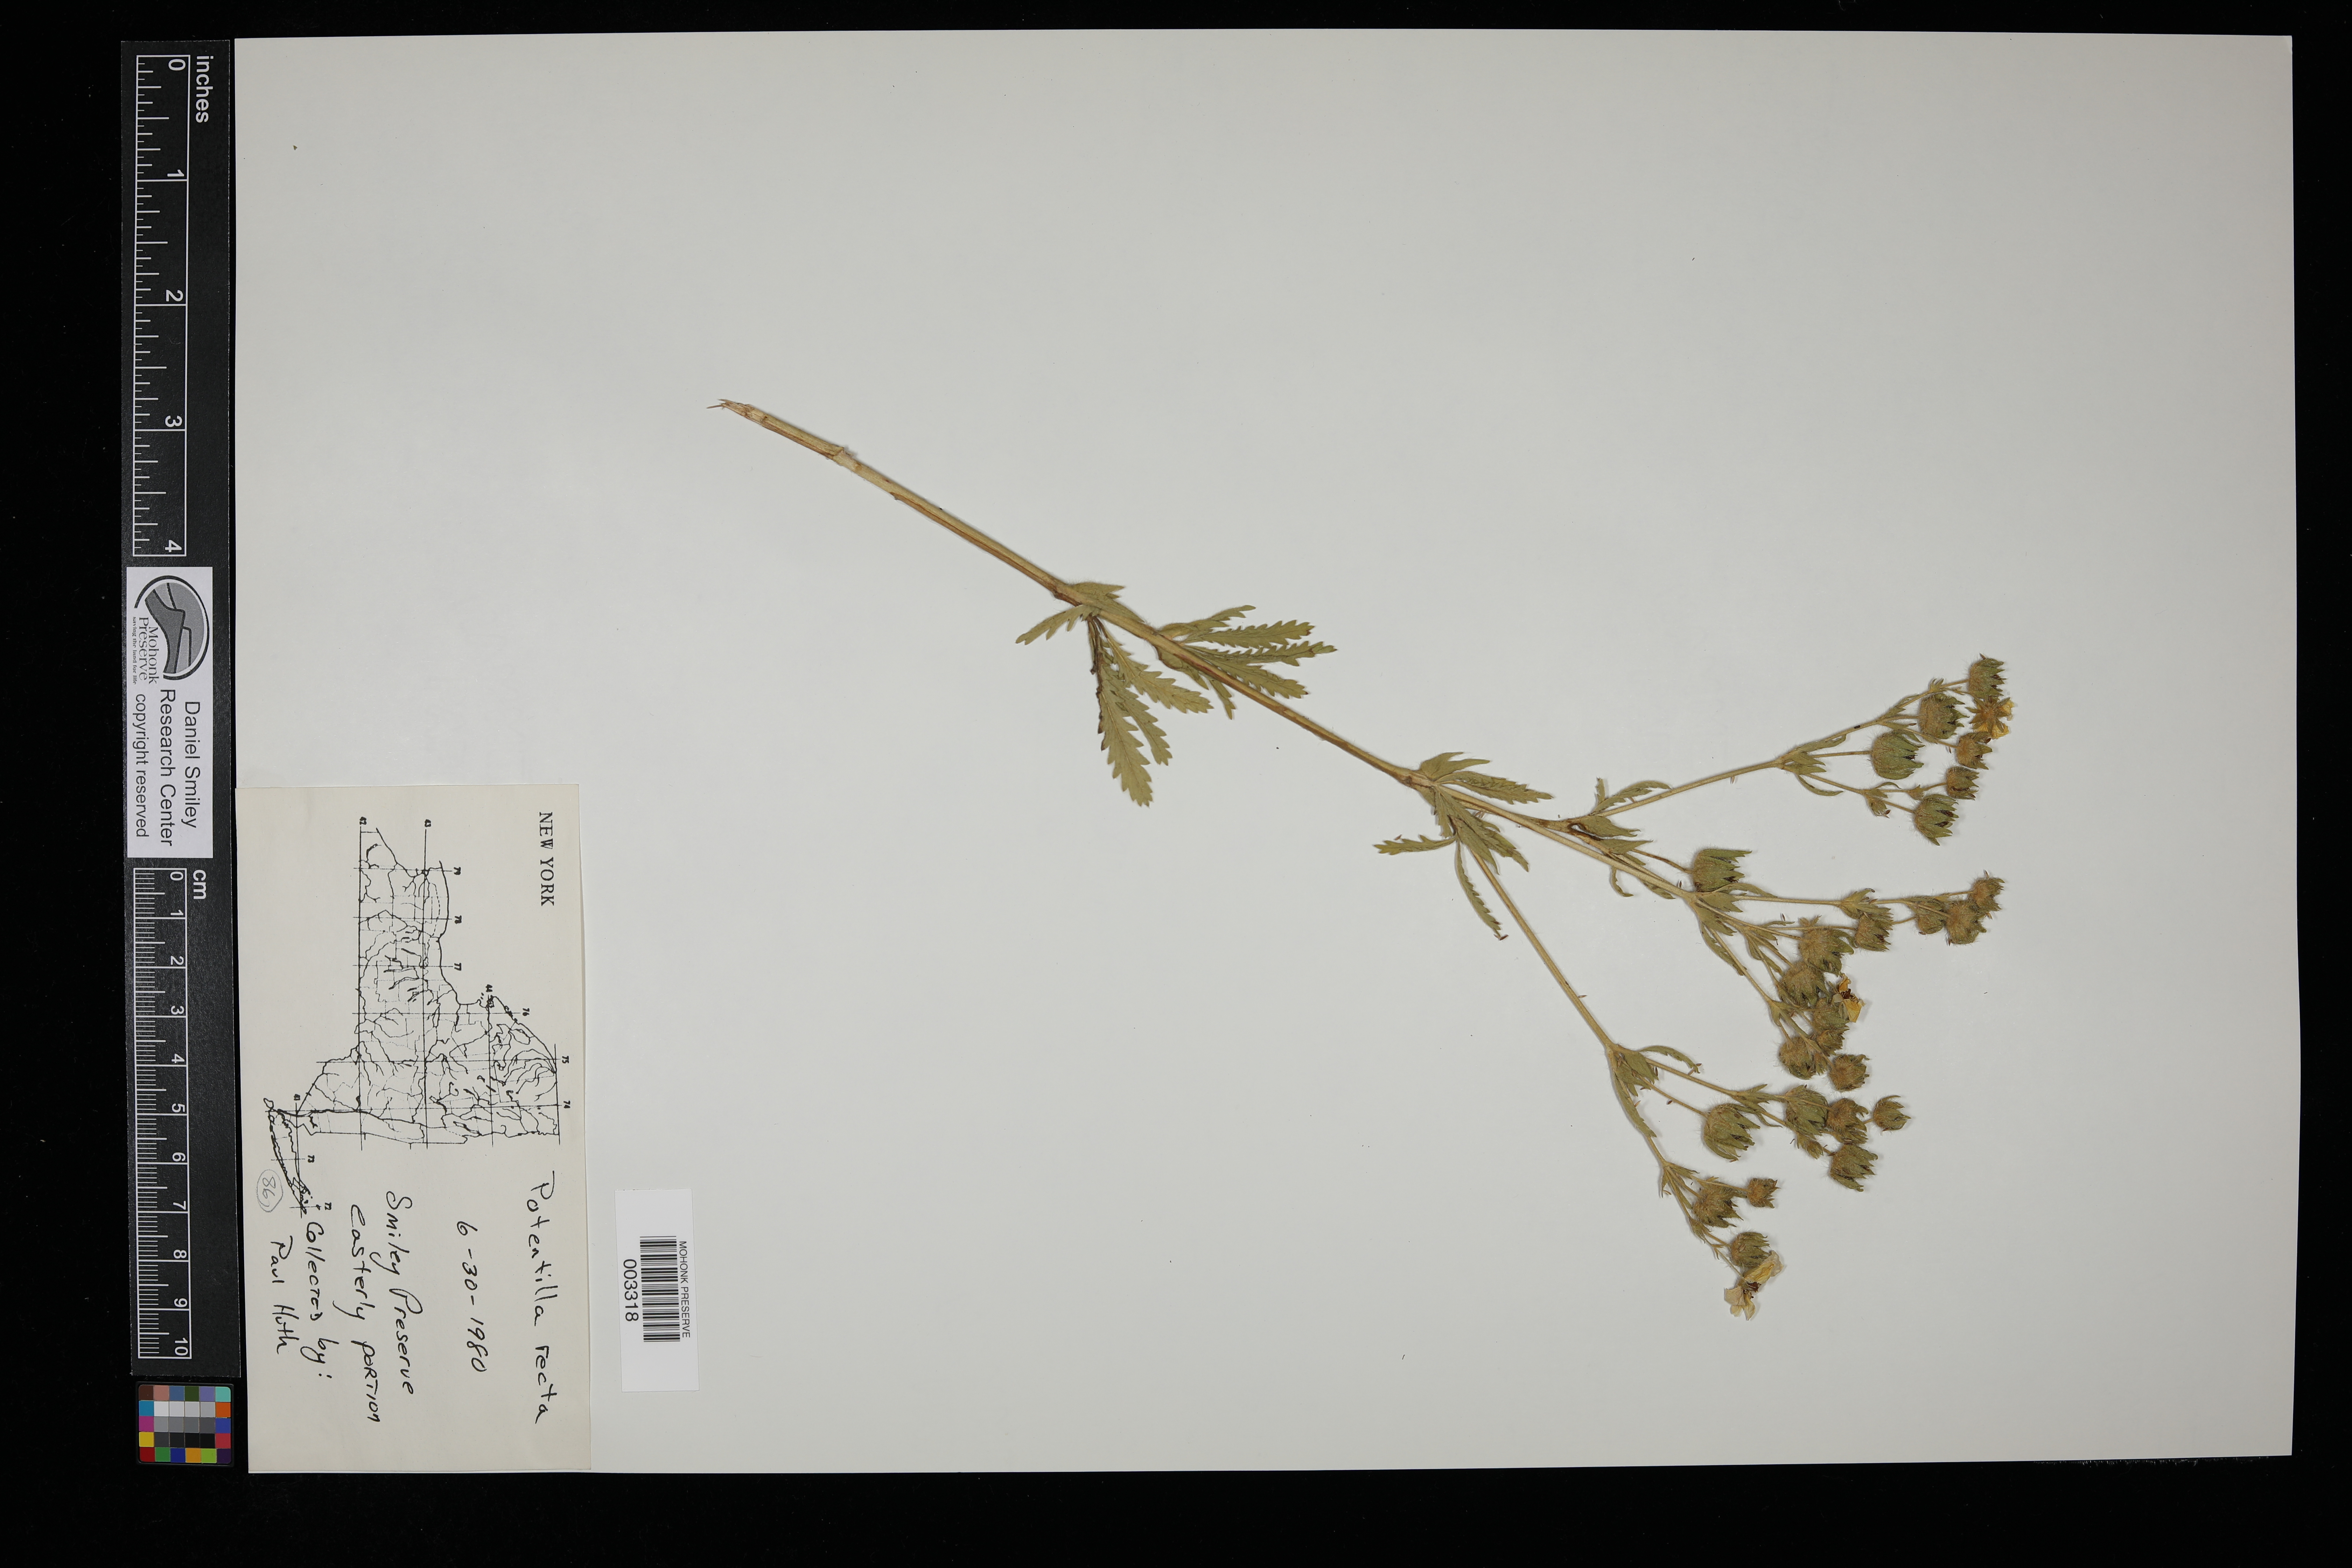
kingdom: Plantae
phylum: Tracheophyta
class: Magnoliopsida
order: Rosales
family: Rosaceae
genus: Potentilla
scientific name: Potentilla recta
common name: Sulphur cinquefoil
